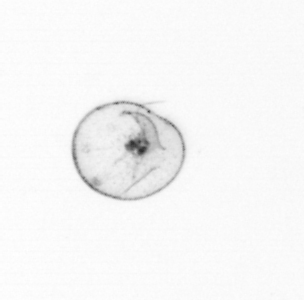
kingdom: Chromista
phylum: Myzozoa
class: Dinophyceae
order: Noctilucales
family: Noctilucaceae
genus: Noctiluca
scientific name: Noctiluca scintillans
